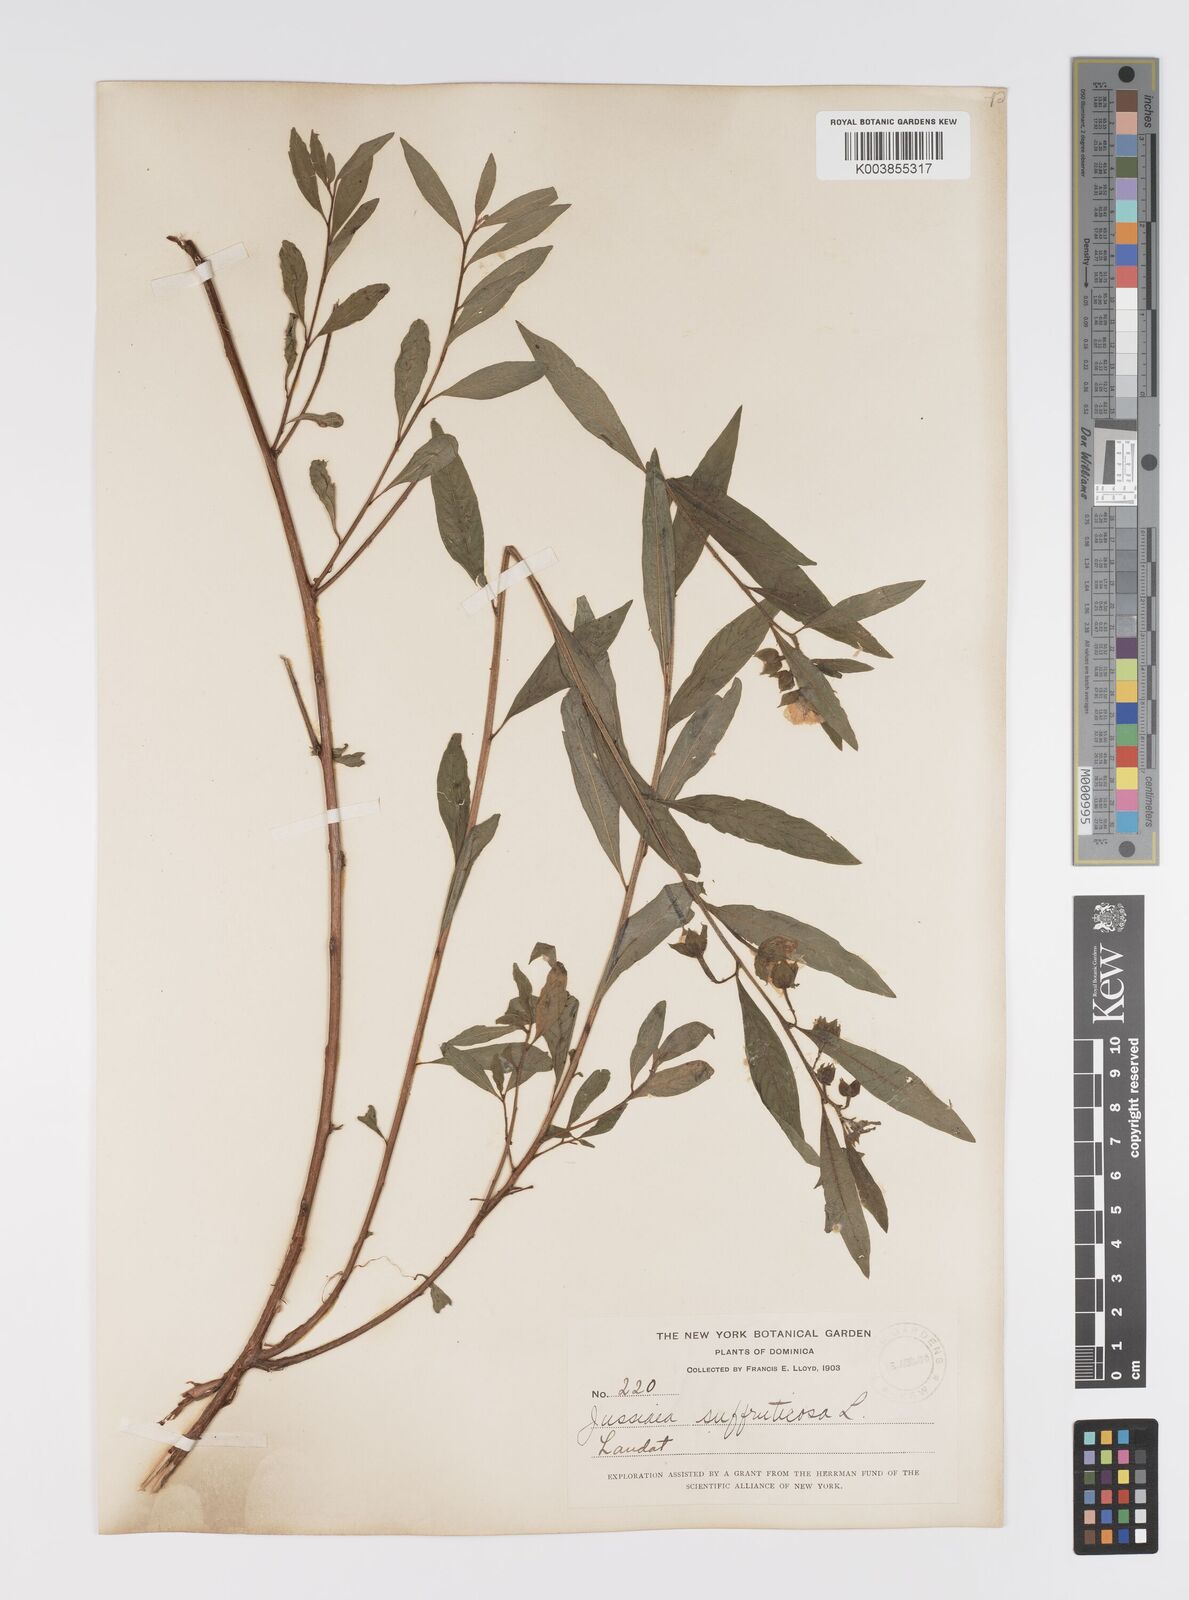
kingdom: Plantae
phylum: Tracheophyta
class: Magnoliopsida
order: Myrtales
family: Onagraceae
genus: Ludwigia
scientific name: Ludwigia octovalvis
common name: Water-primrose
